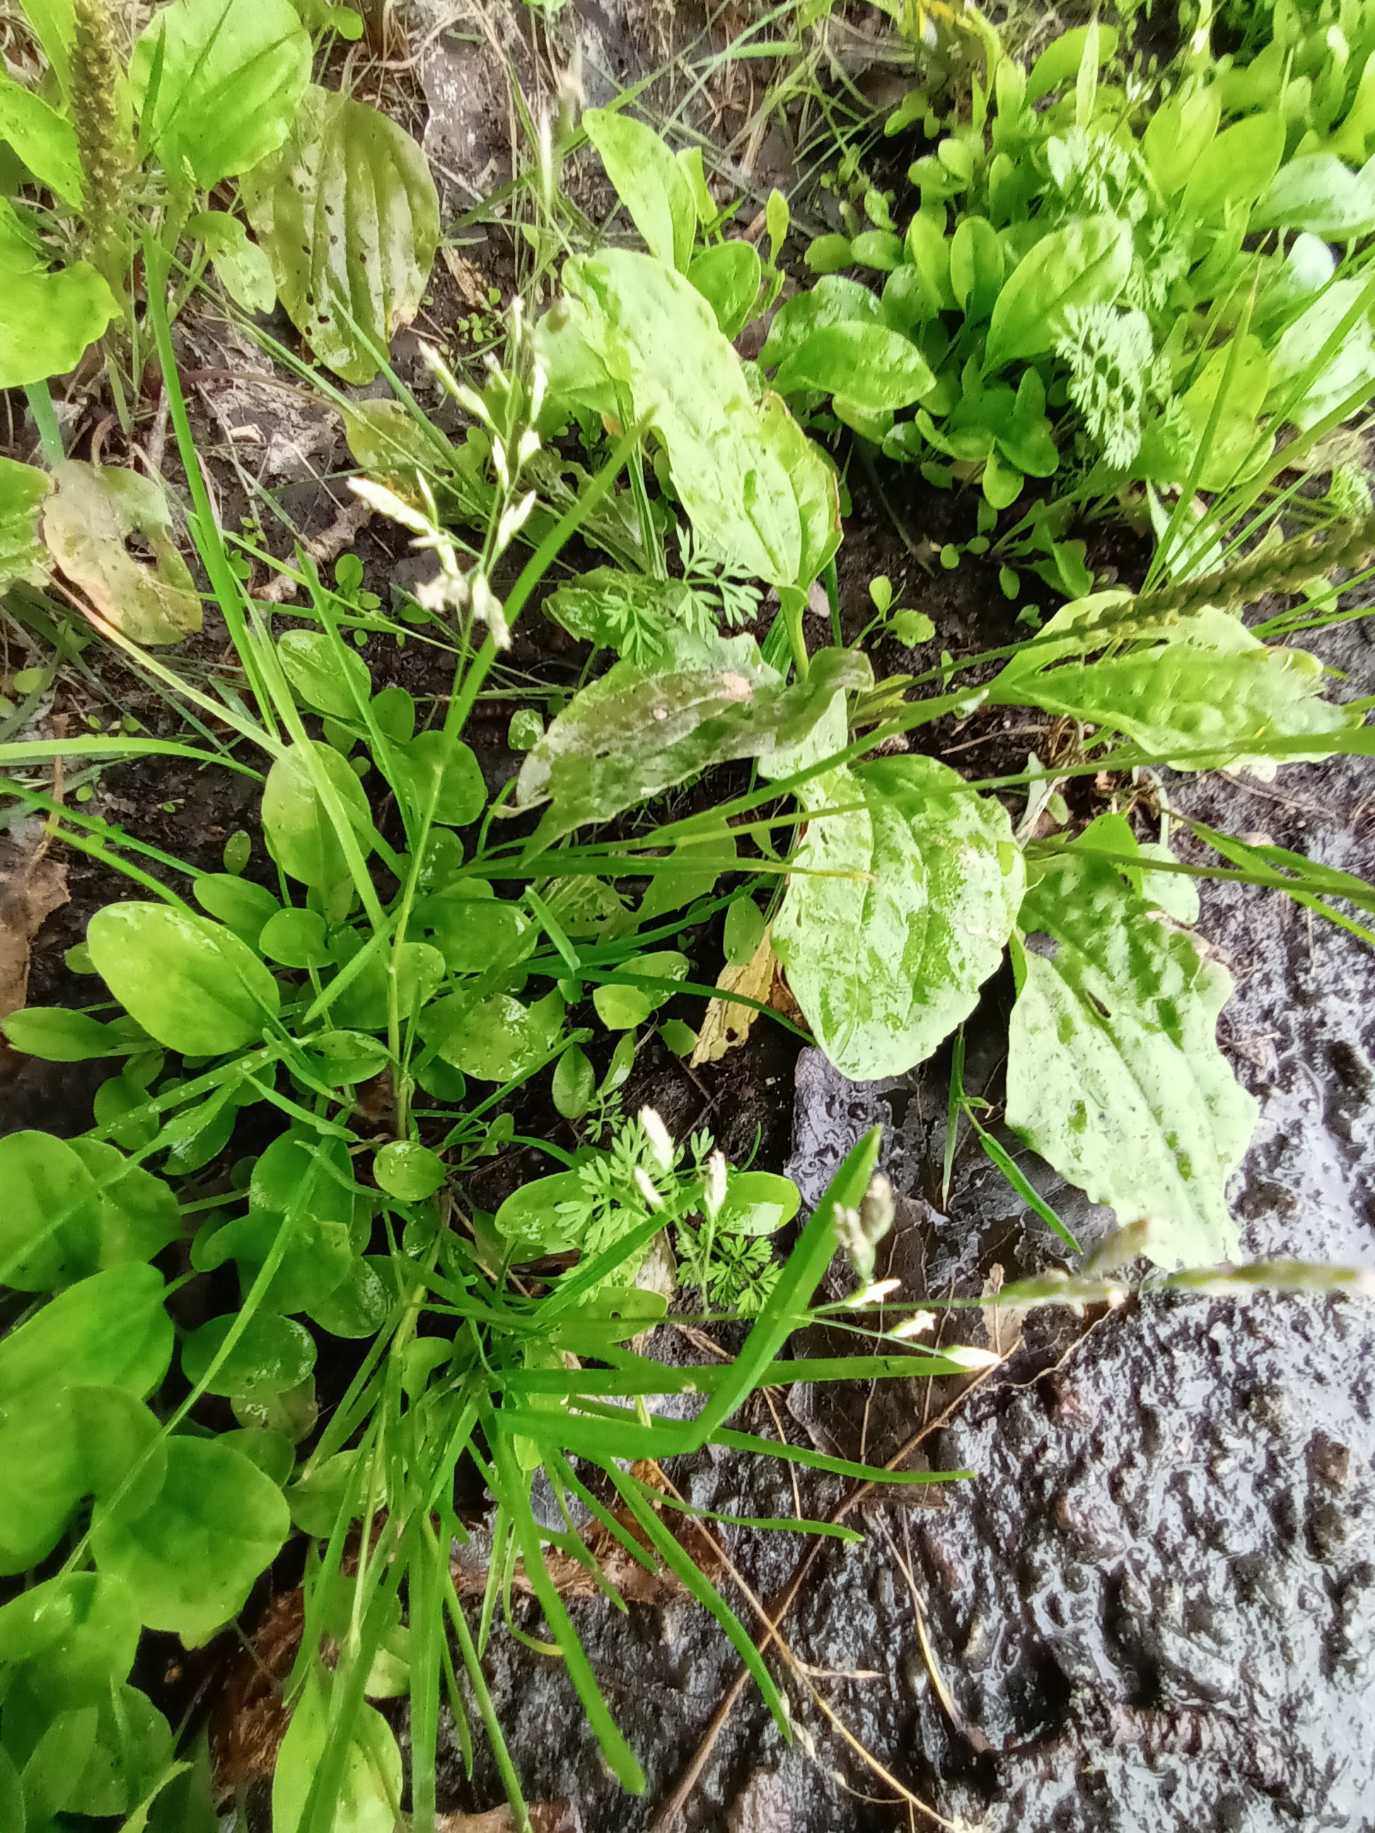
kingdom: Plantae
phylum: Tracheophyta
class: Liliopsida
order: Poales
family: Poaceae
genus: Poa
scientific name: Poa annua
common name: Enårig rapgræs
